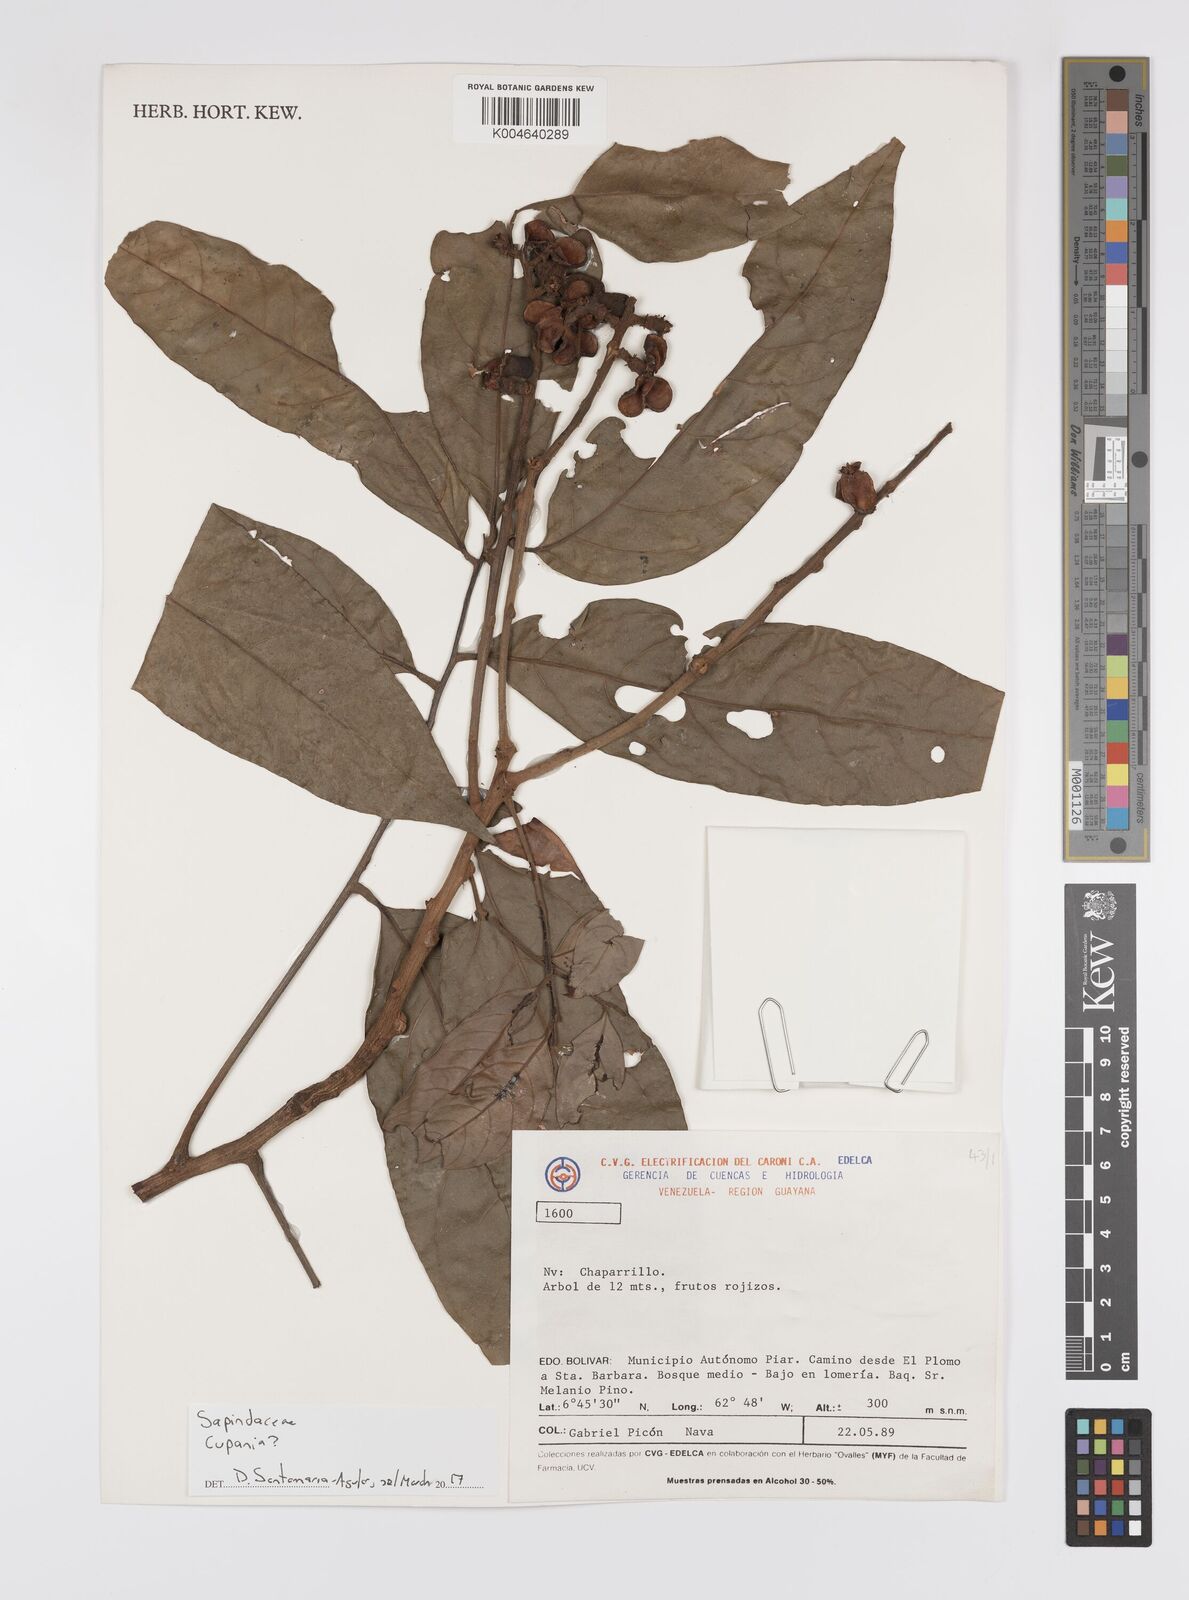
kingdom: Plantae
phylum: Tracheophyta
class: Magnoliopsida
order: Sapindales
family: Sapindaceae
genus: Cupania
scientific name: Cupania
